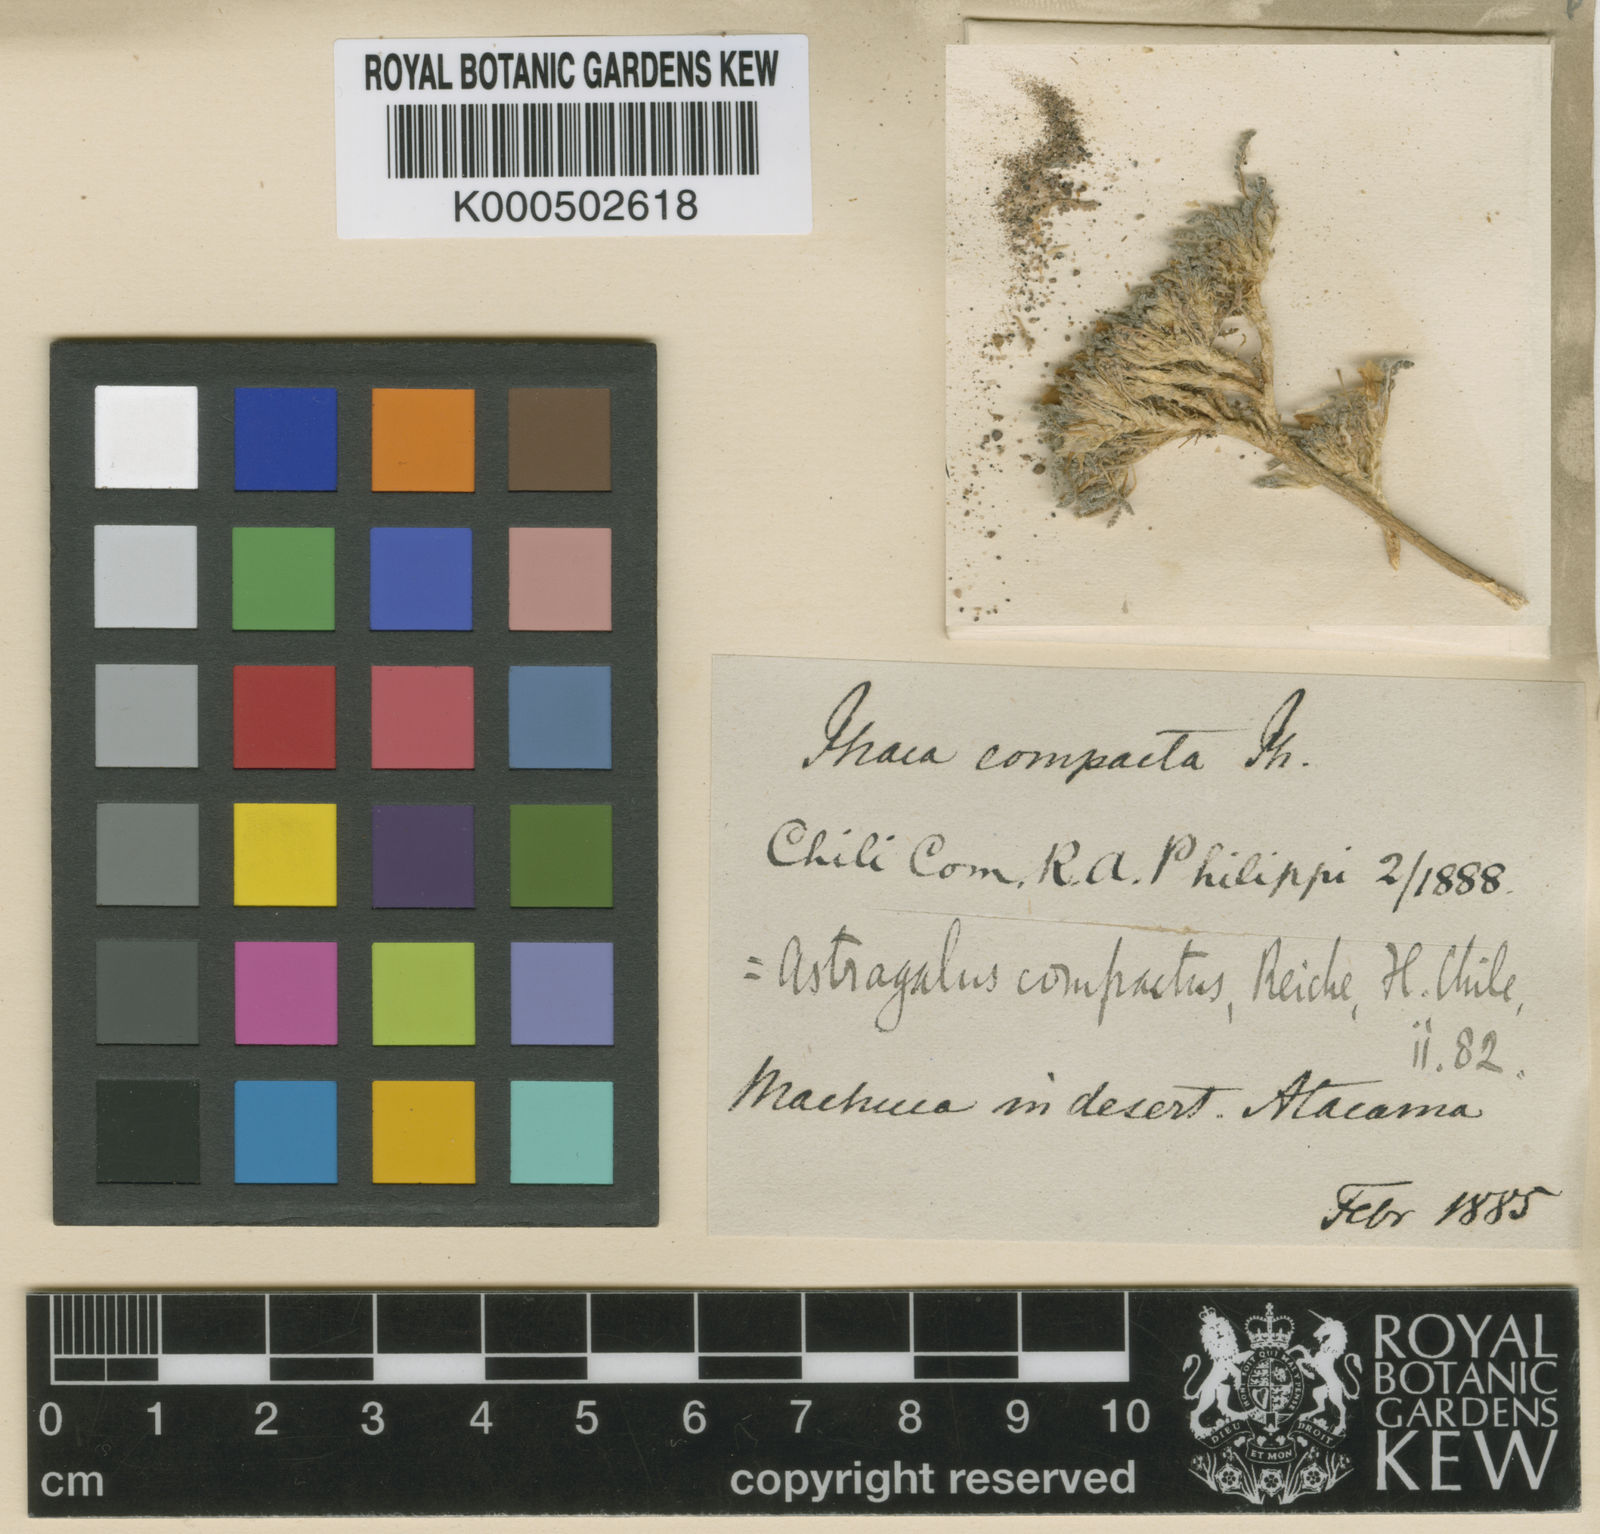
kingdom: Plantae
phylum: Tracheophyta
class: Magnoliopsida
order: Fabales
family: Fabaceae
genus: Astragalus
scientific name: Astragalus reichei
